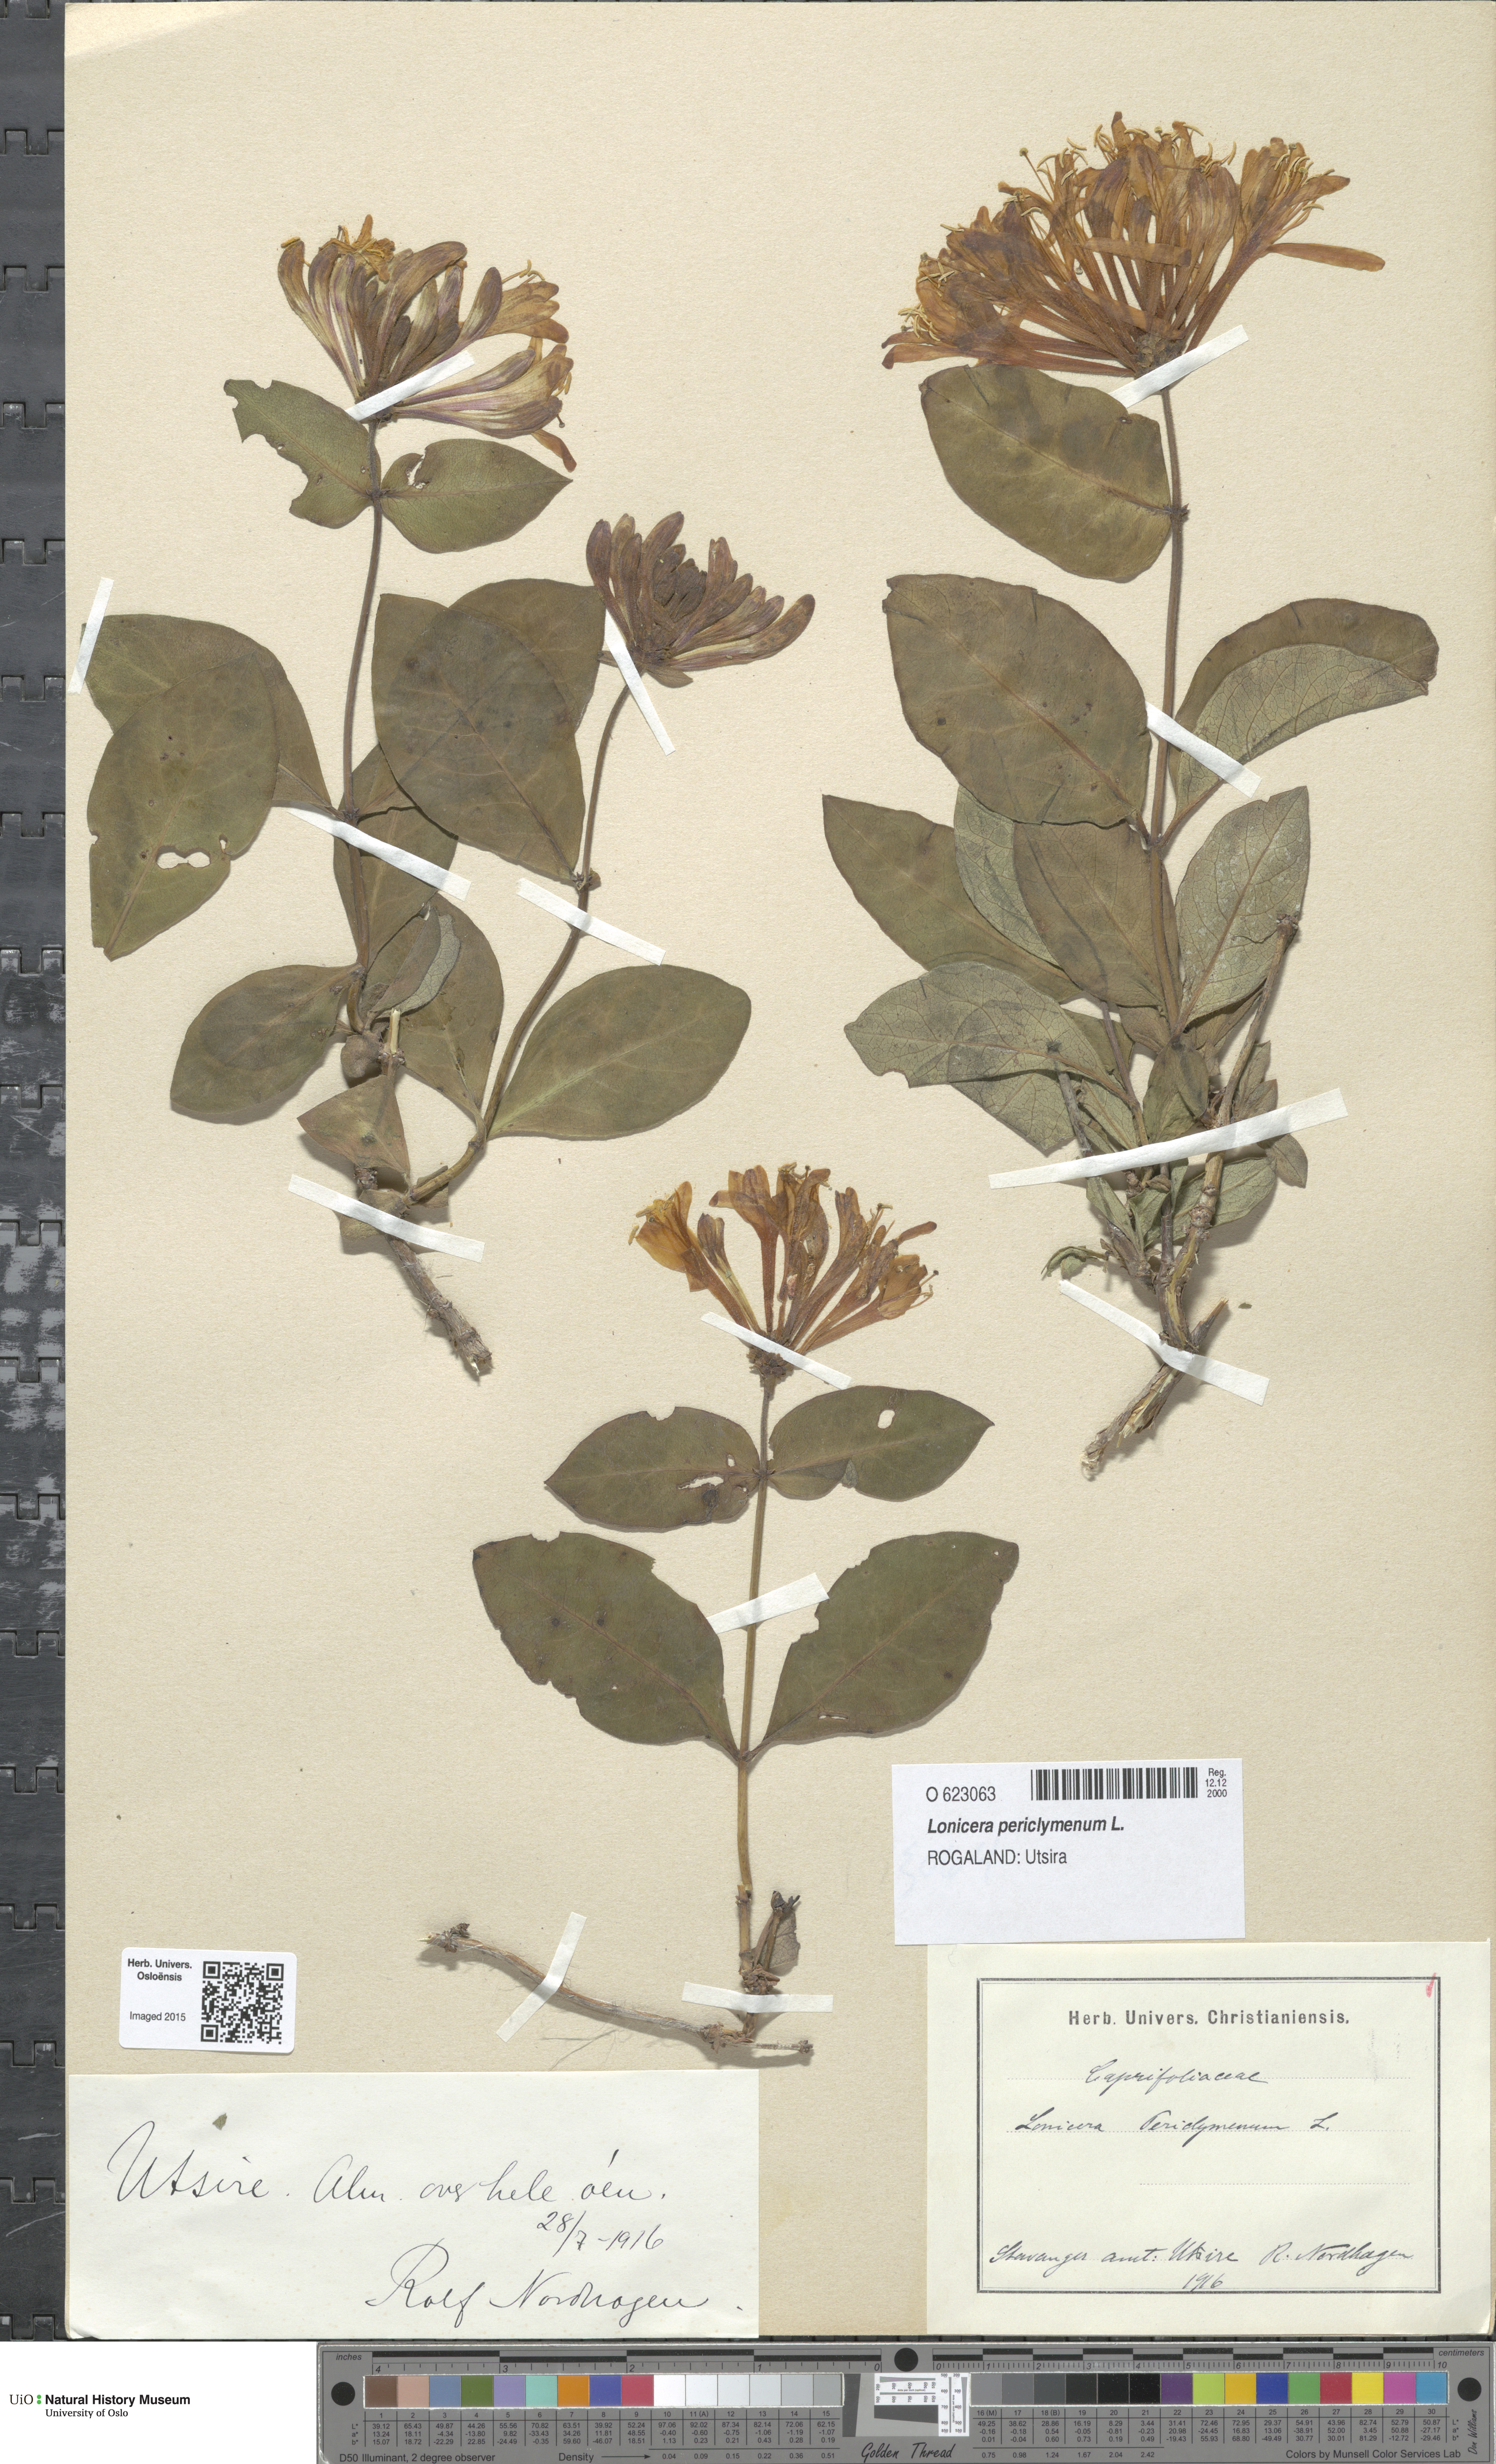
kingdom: Plantae
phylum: Tracheophyta
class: Magnoliopsida
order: Dipsacales
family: Caprifoliaceae
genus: Lonicera
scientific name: Lonicera periclymenum
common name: European honeysuckle
